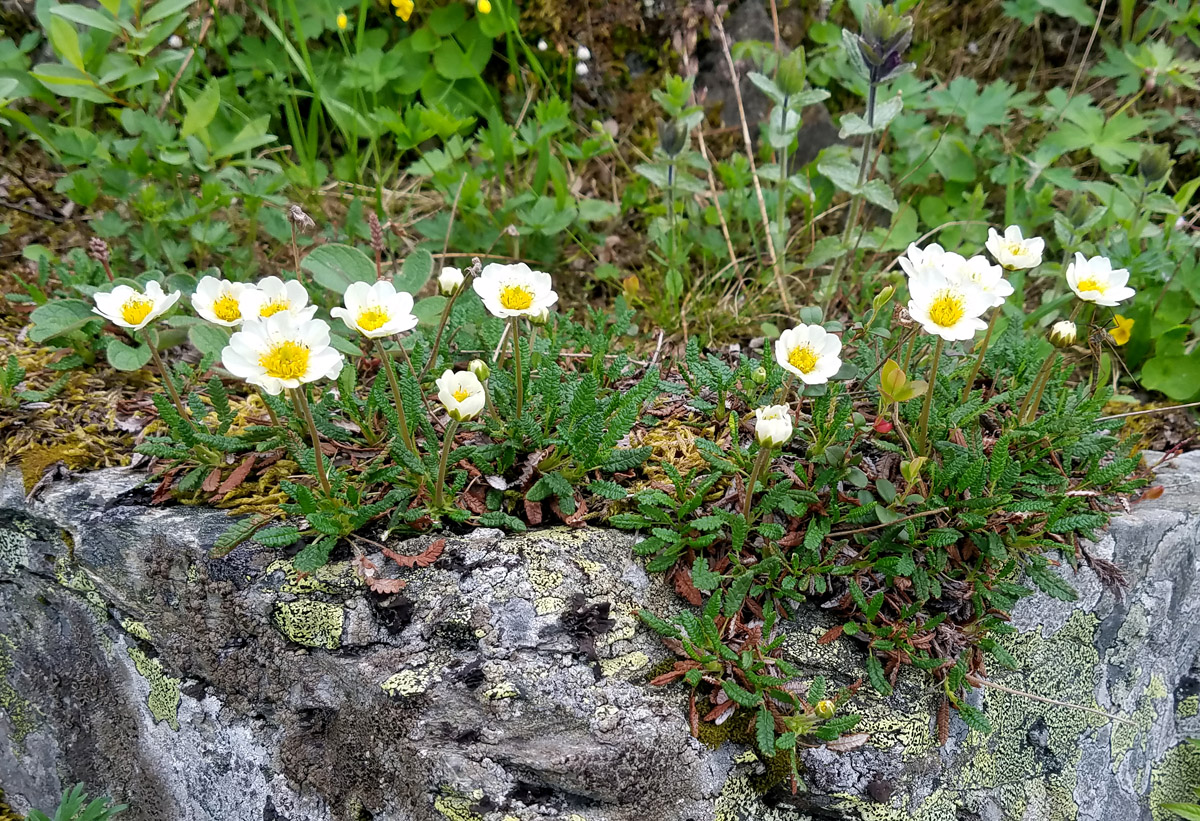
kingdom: Plantae
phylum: Tracheophyta
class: Magnoliopsida
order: Rosales
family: Rosaceae
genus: Dryas
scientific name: Dryas octopetala
